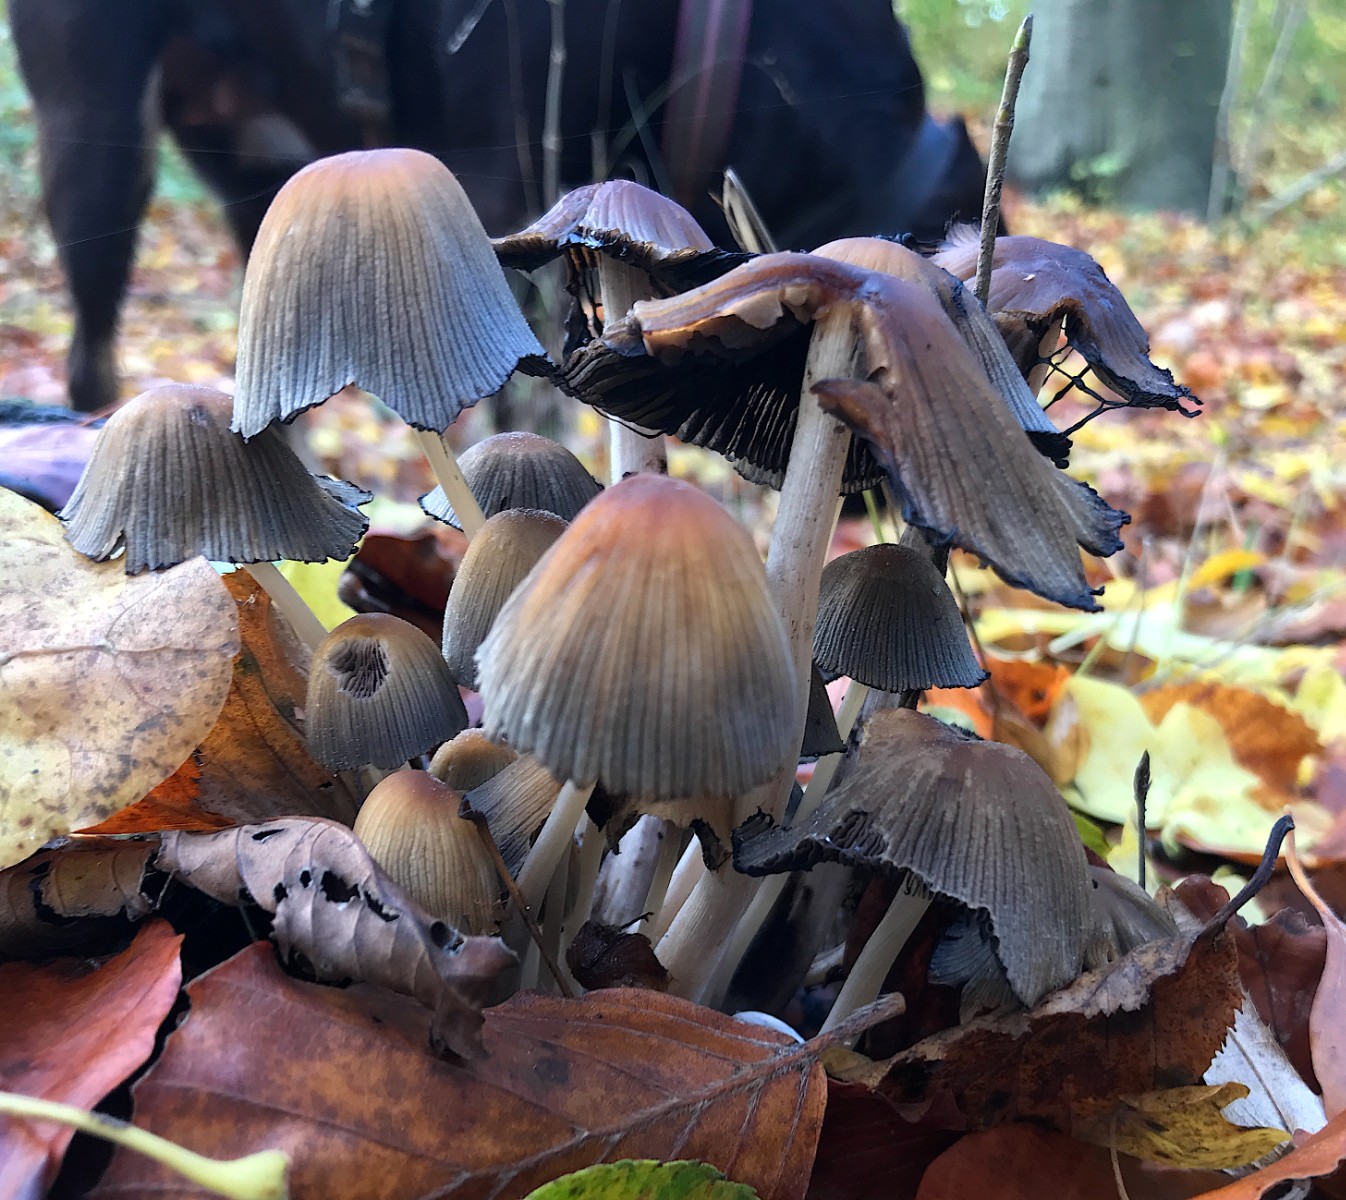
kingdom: Fungi
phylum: Basidiomycota
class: Agaricomycetes
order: Agaricales
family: Psathyrellaceae
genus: Coprinellus
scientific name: Coprinellus micaceus
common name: glimmer-blækhat
